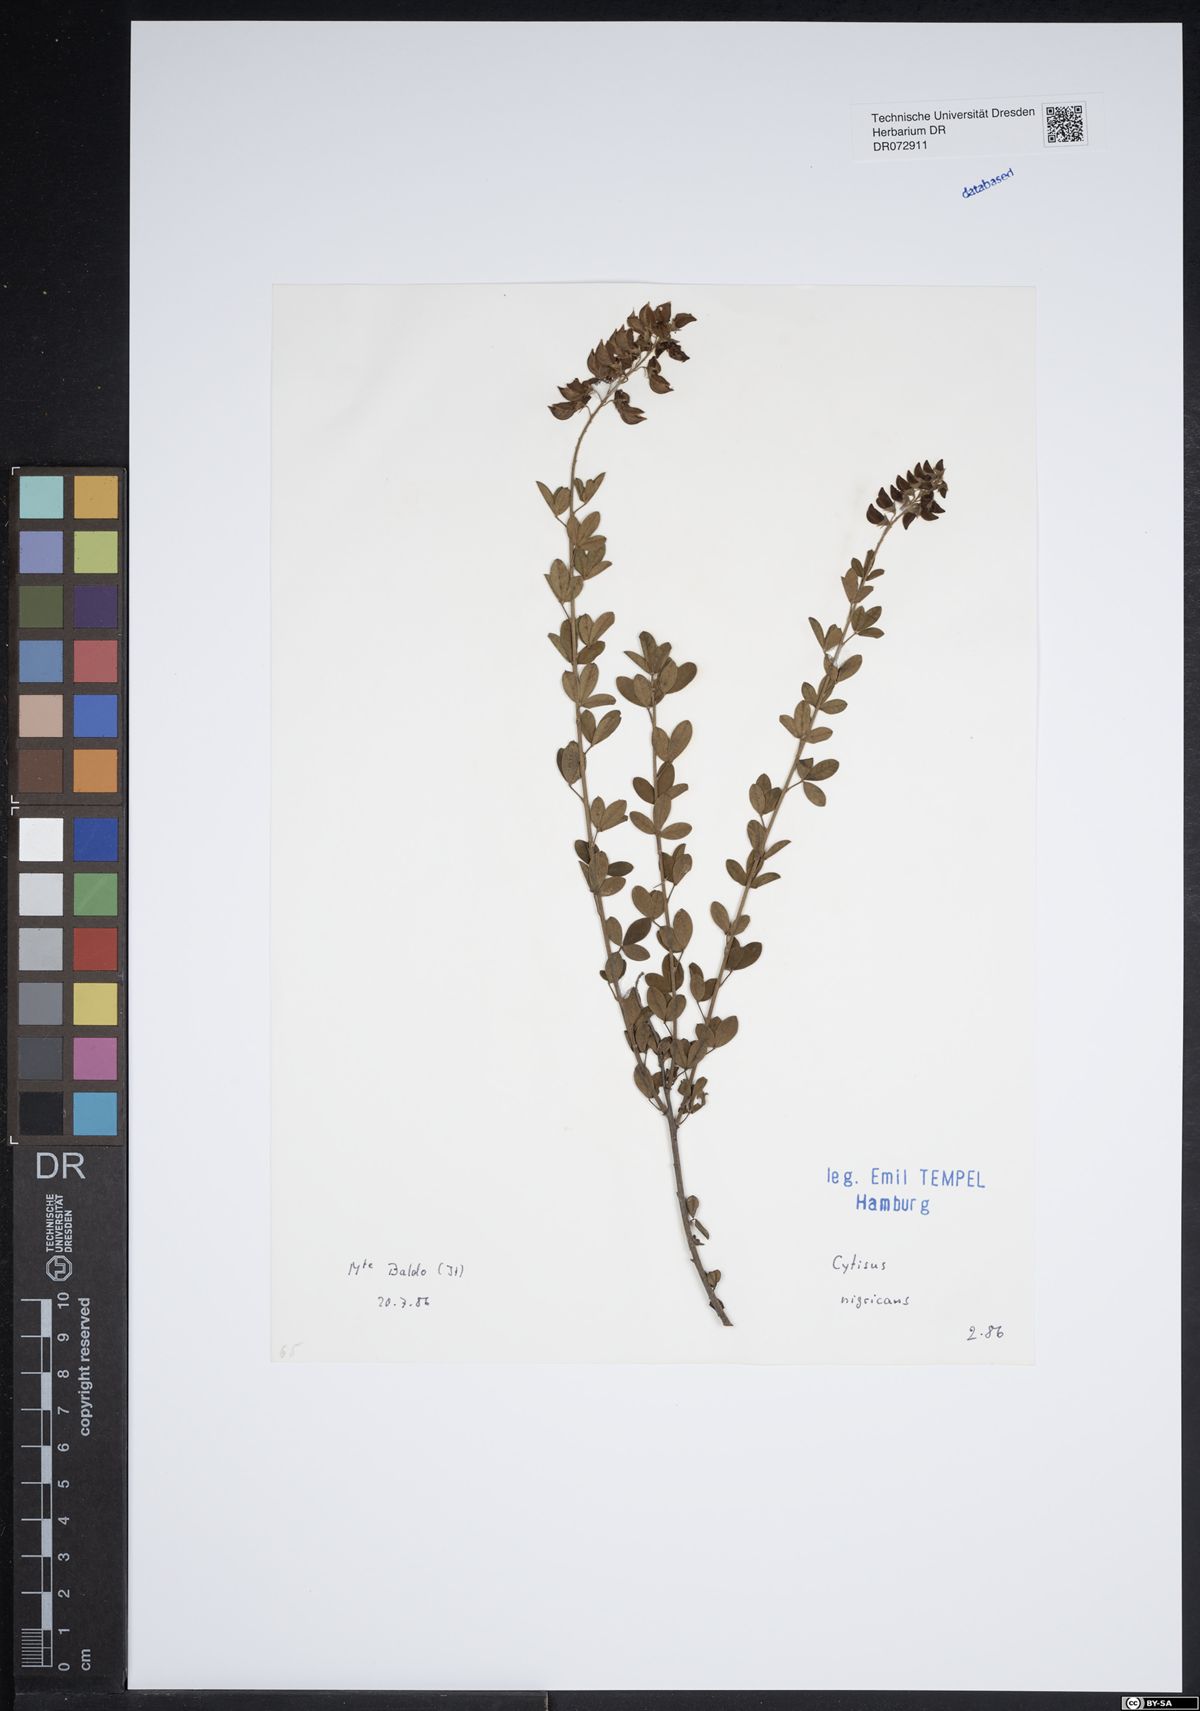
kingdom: Plantae
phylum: Tracheophyta
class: Magnoliopsida
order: Fabales
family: Fabaceae
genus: Cytisus
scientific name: Cytisus nigricans
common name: Black broom
